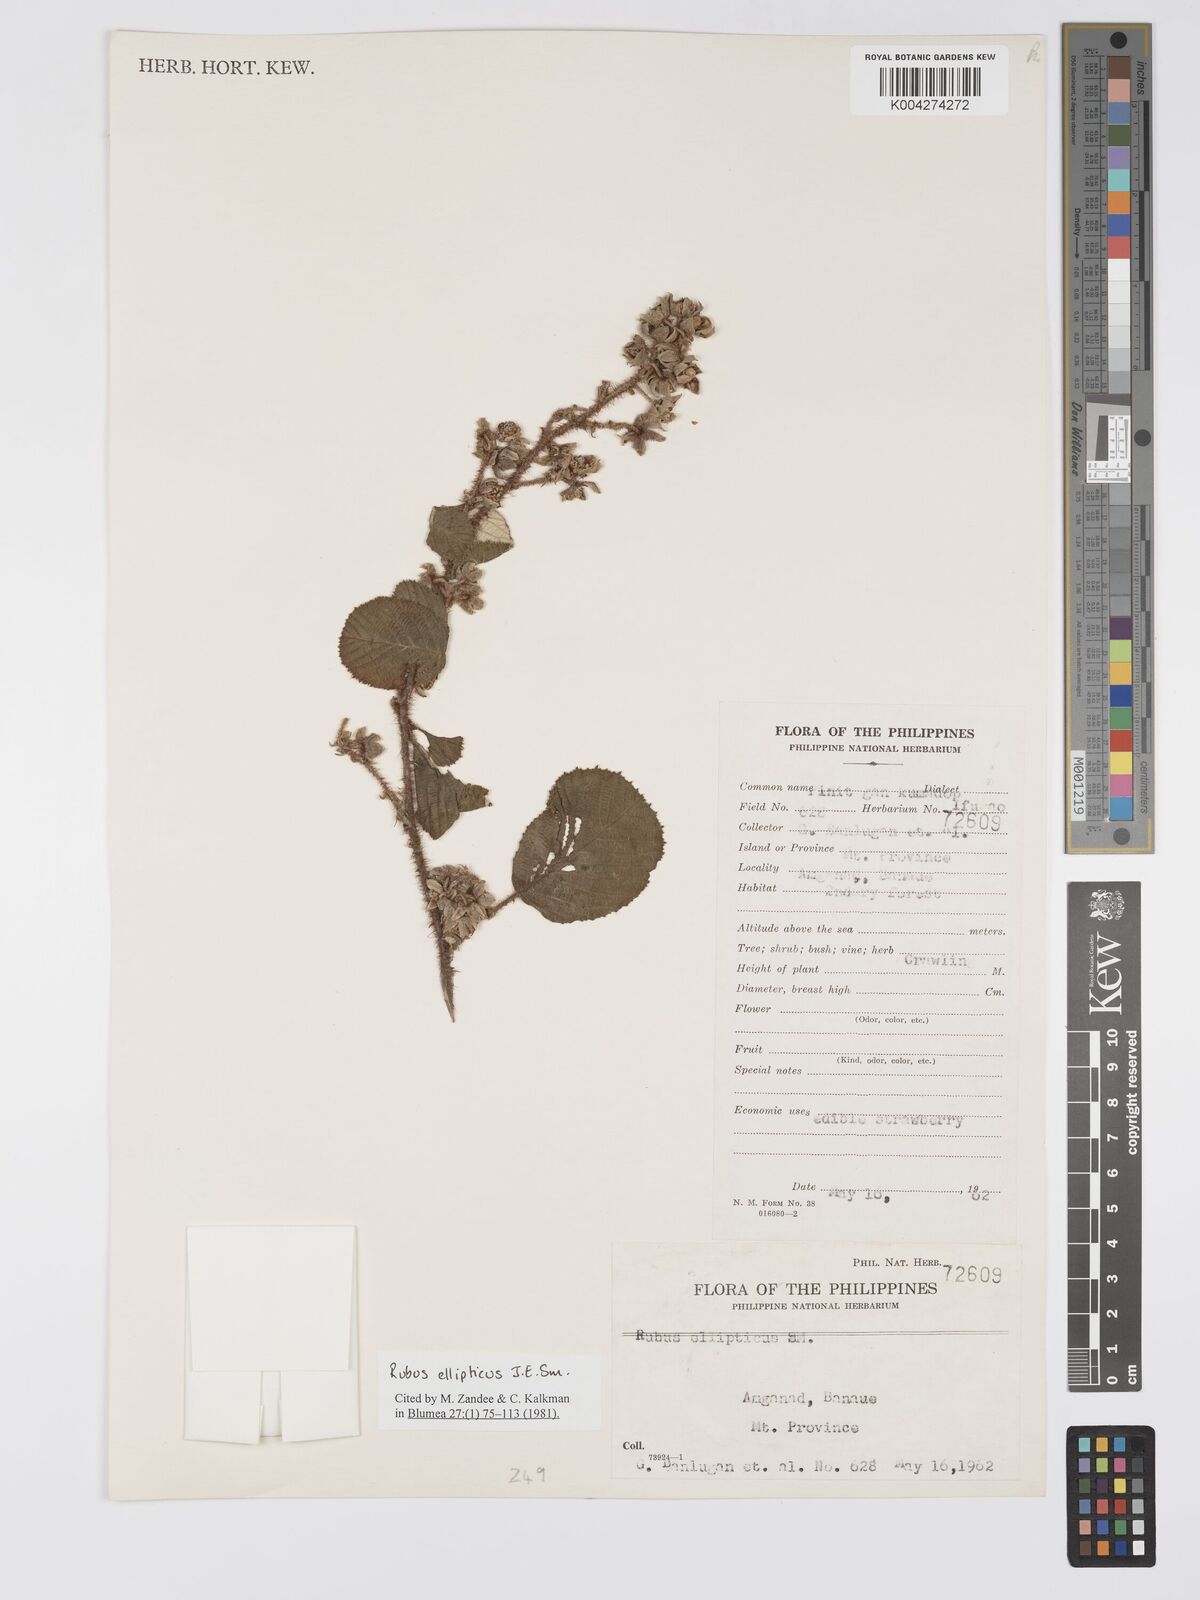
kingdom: Plantae
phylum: Tracheophyta
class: Magnoliopsida
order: Rosales
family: Rosaceae
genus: Rubus
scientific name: Rubus ellipticus
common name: Cheeseberry
